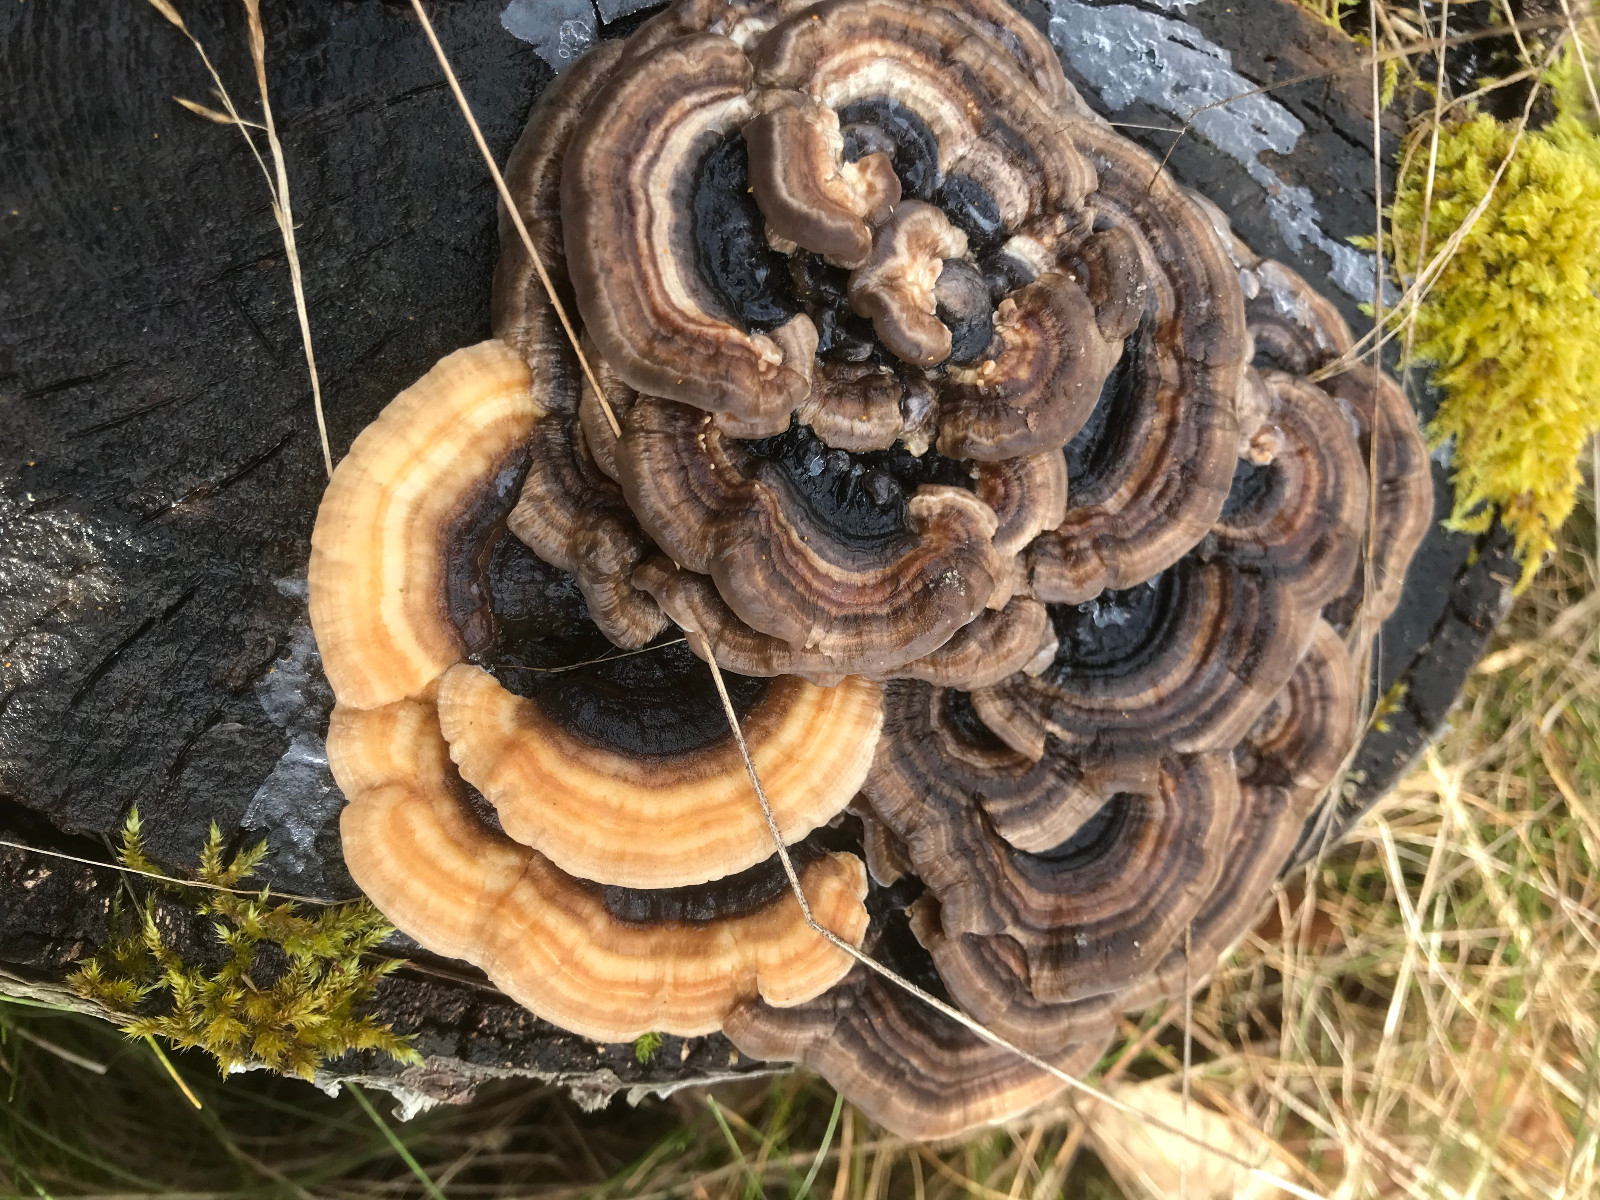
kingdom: Fungi
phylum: Basidiomycota
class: Agaricomycetes
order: Polyporales
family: Polyporaceae
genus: Trametes
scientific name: Trametes versicolor
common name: broget læderporesvamp
